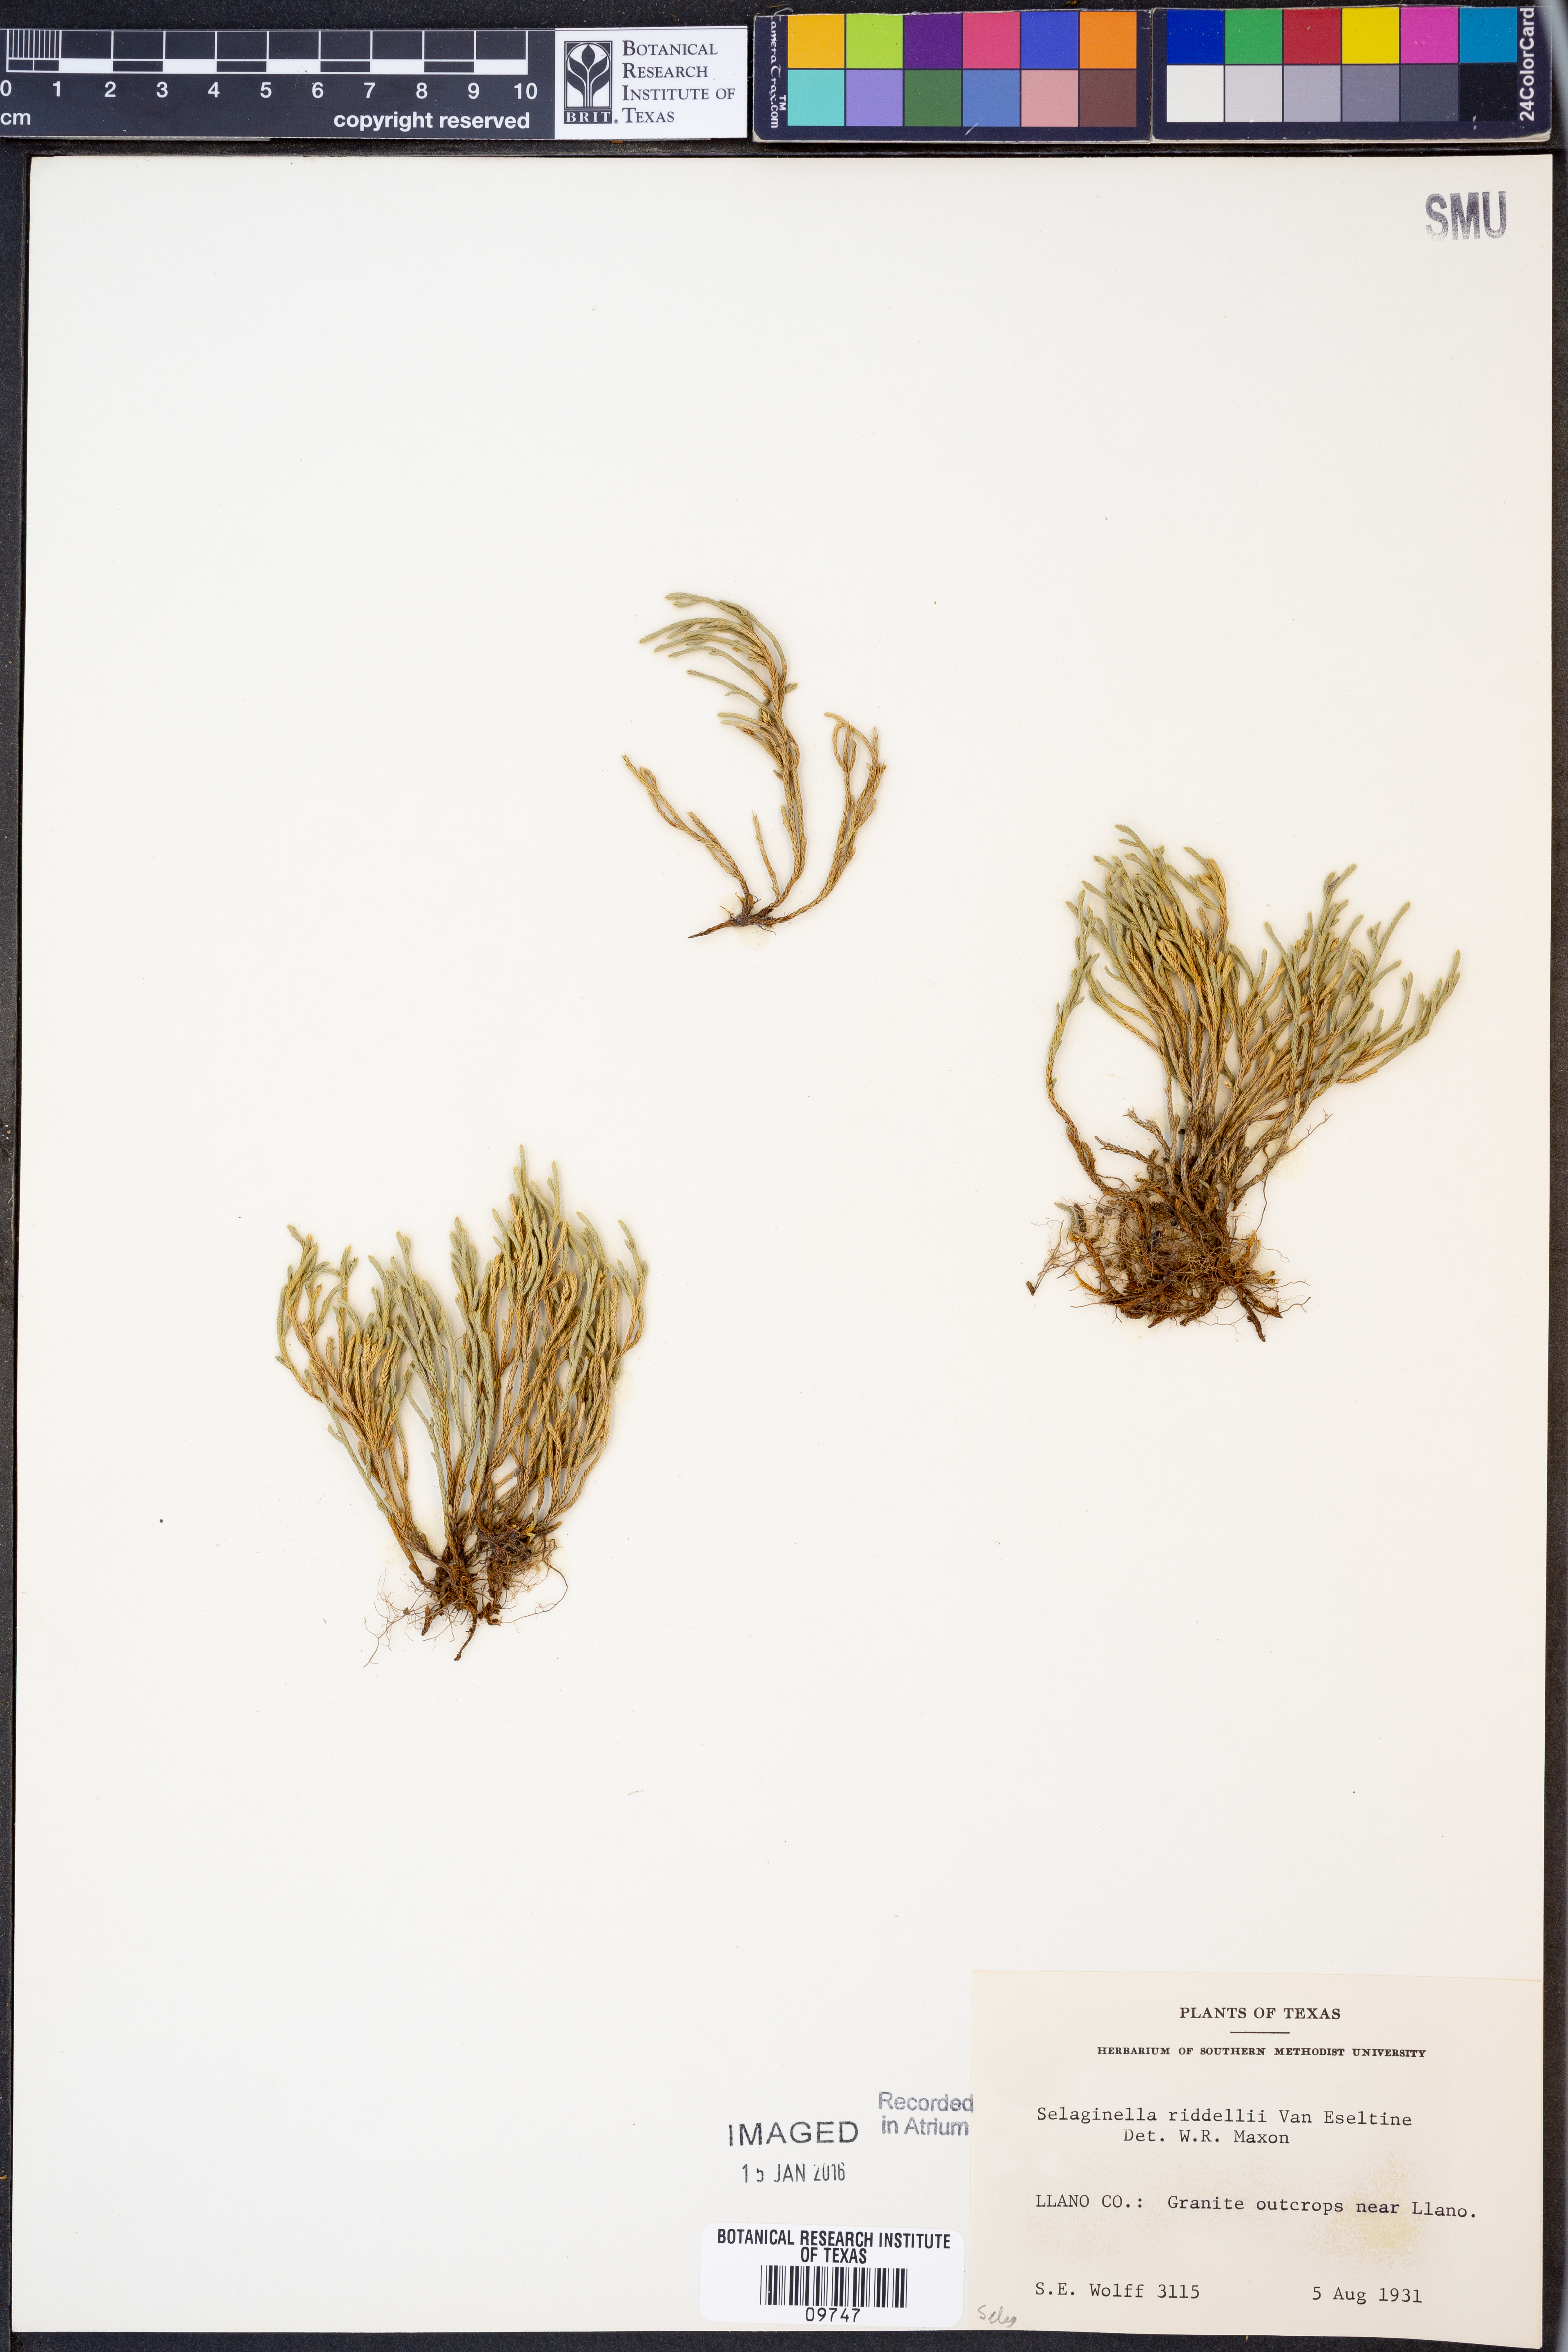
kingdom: Plantae
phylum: Tracheophyta
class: Lycopodiopsida
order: Selaginellales
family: Selaginellaceae
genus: Selaginella
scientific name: Selaginella corallina
